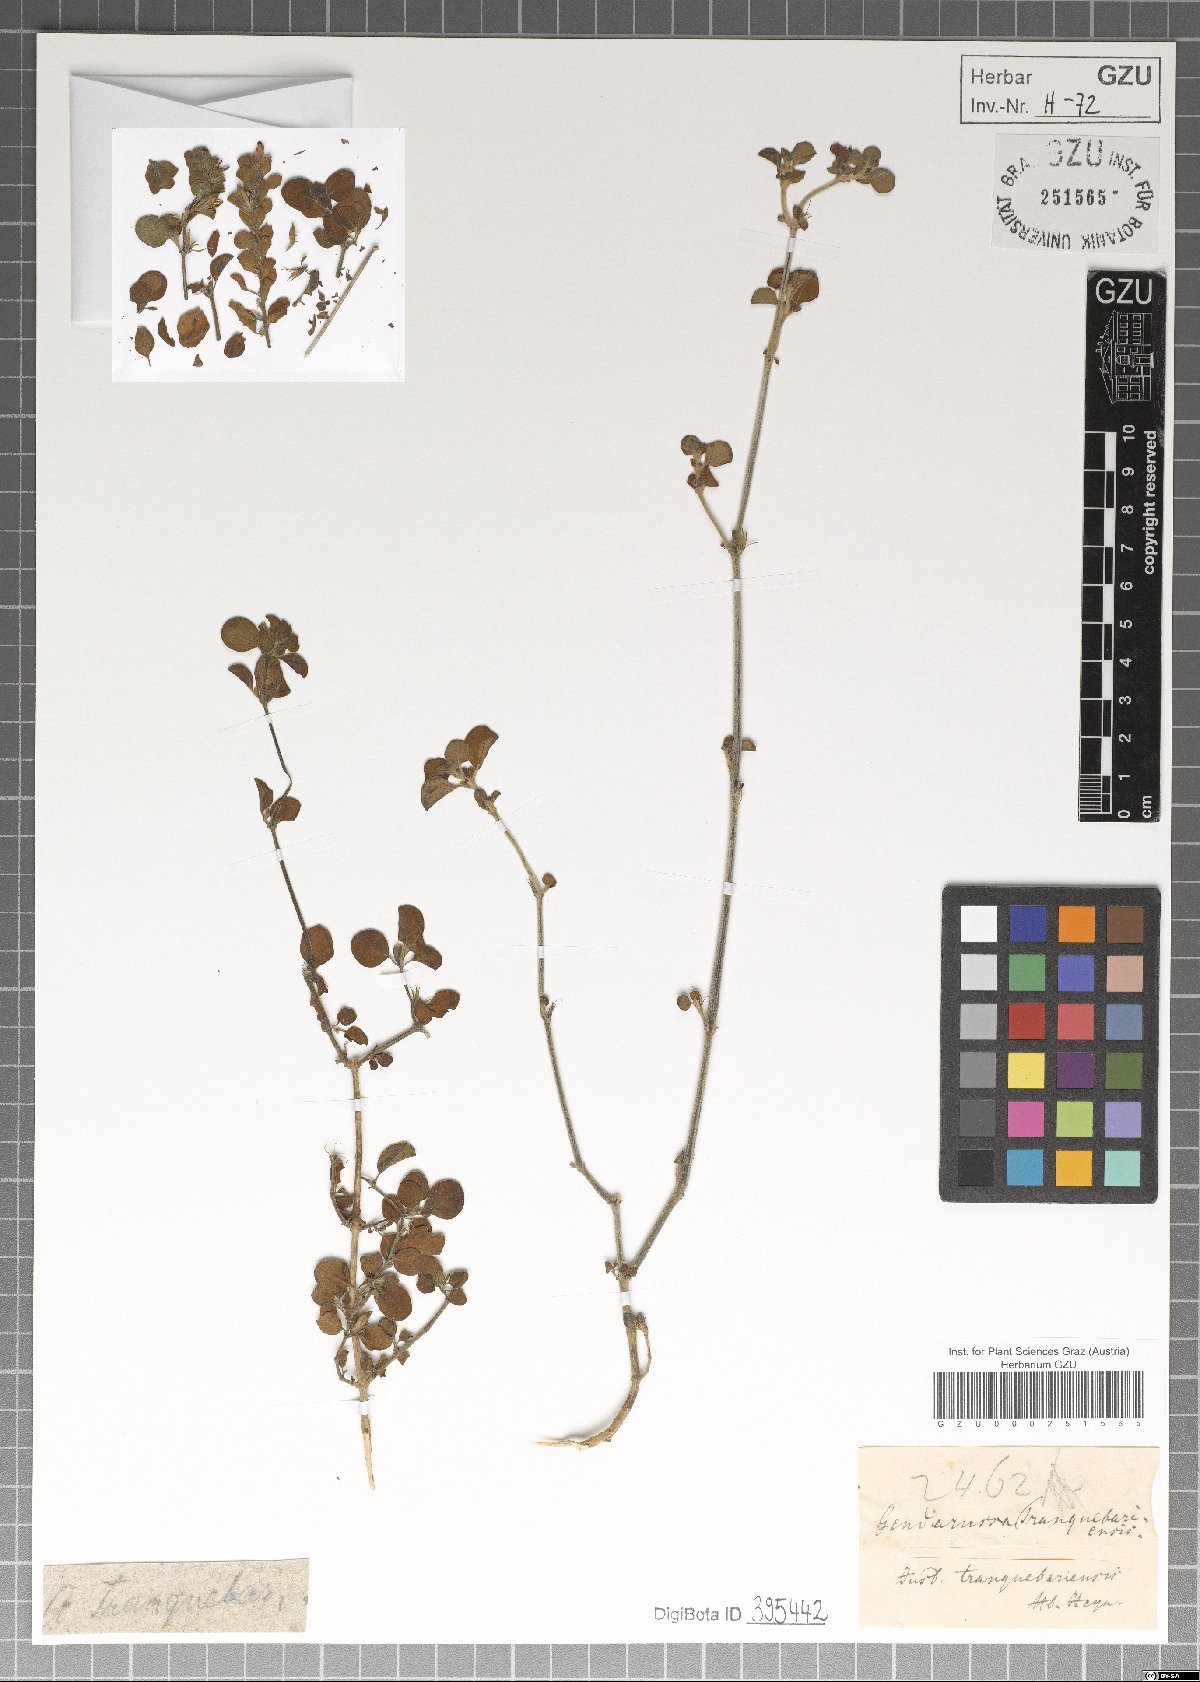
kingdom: Plantae
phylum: Tracheophyta
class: Magnoliopsida
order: Lamiales
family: Acanthaceae
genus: Justicia
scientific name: Justicia tranquebariensis
